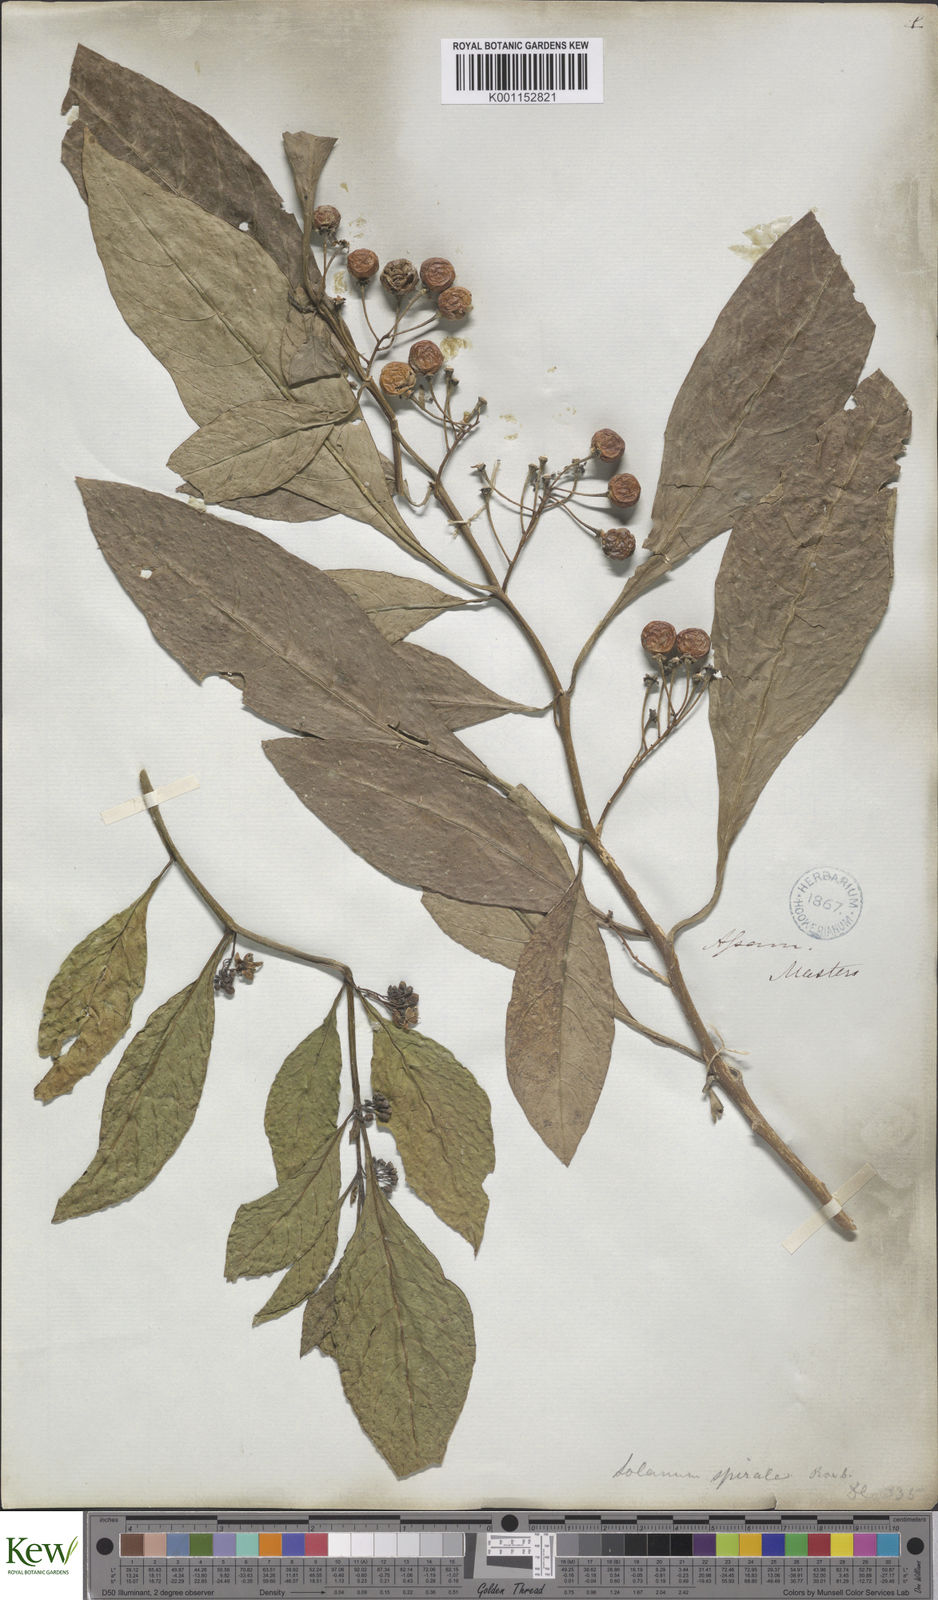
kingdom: Plantae
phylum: Tracheophyta
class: Magnoliopsida
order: Solanales
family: Solanaceae
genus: Solanum
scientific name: Solanum spirale
